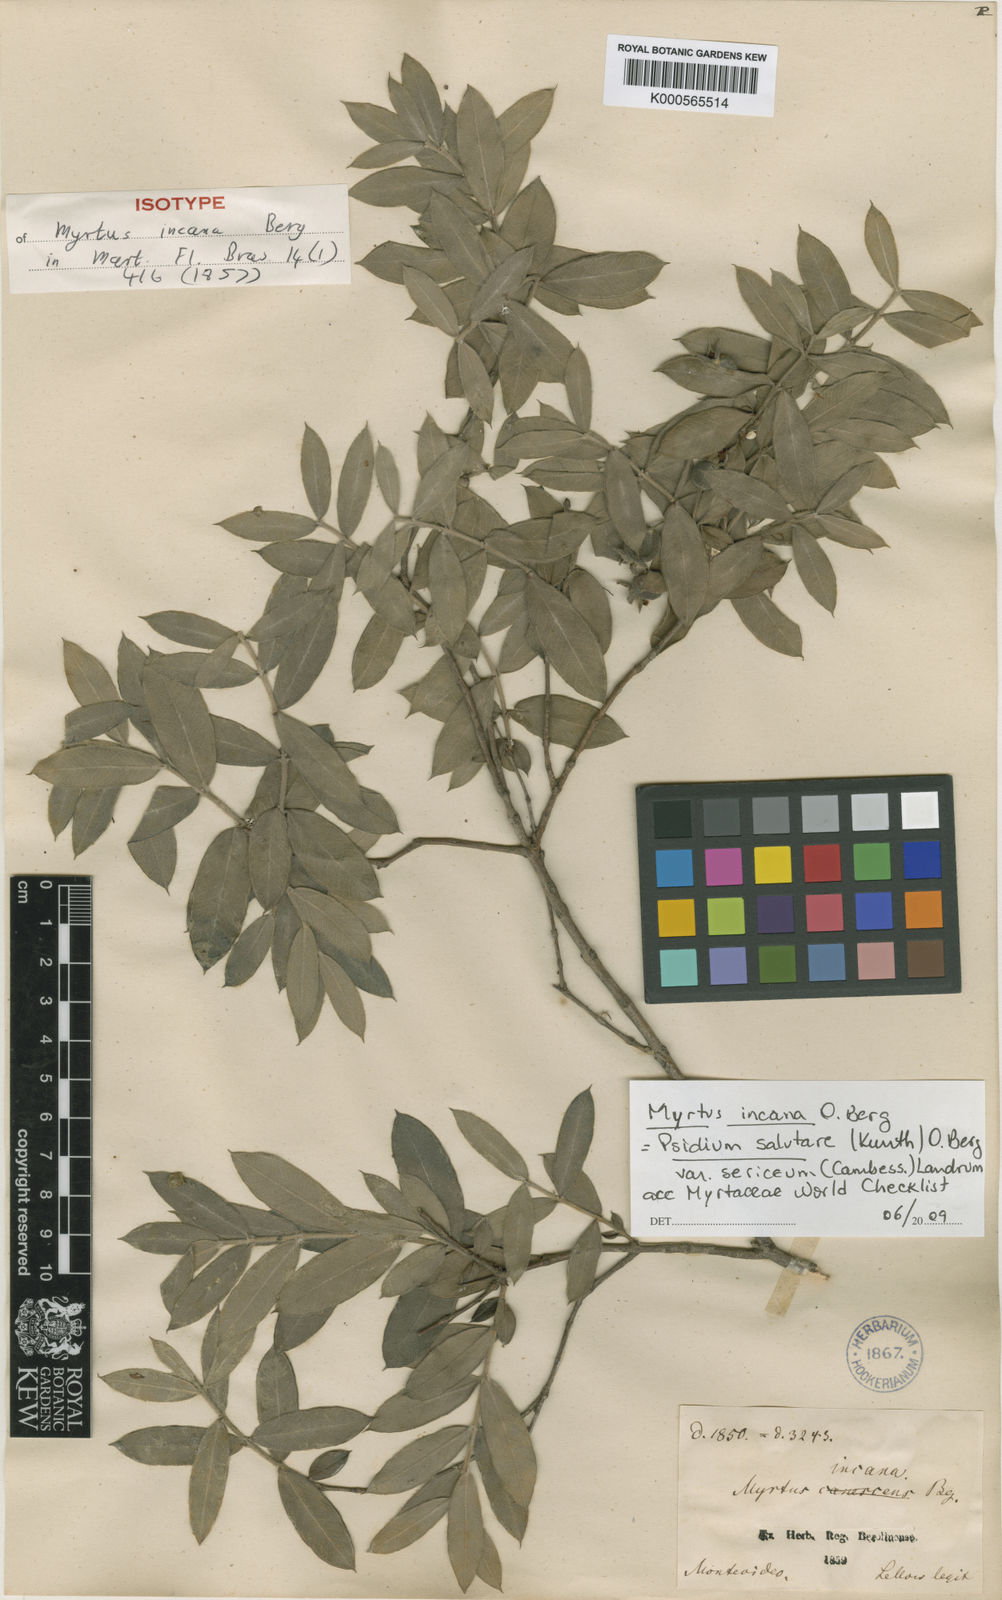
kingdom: Plantae
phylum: Tracheophyta
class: Magnoliopsida
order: Myrtales
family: Myrtaceae
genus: Psidium
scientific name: Psidium salutare
